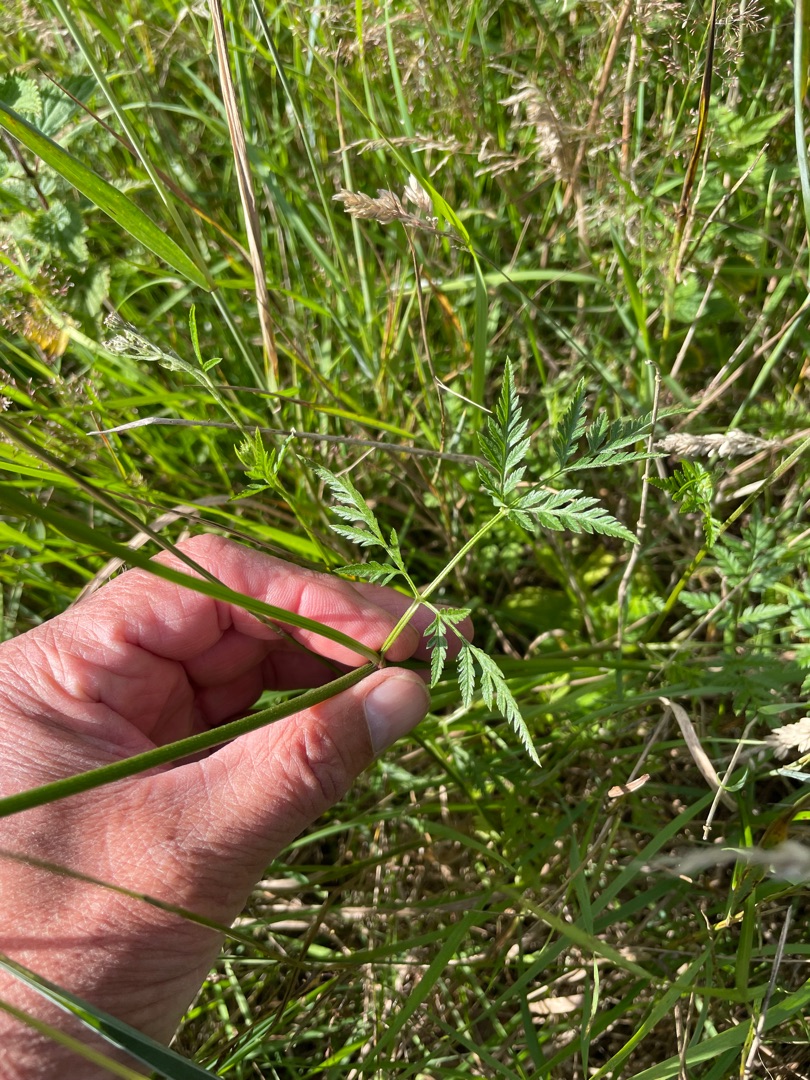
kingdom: Plantae
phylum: Tracheophyta
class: Magnoliopsida
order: Apiales
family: Apiaceae
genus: Torilis
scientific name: Torilis japonica
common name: Hvas randfrø
